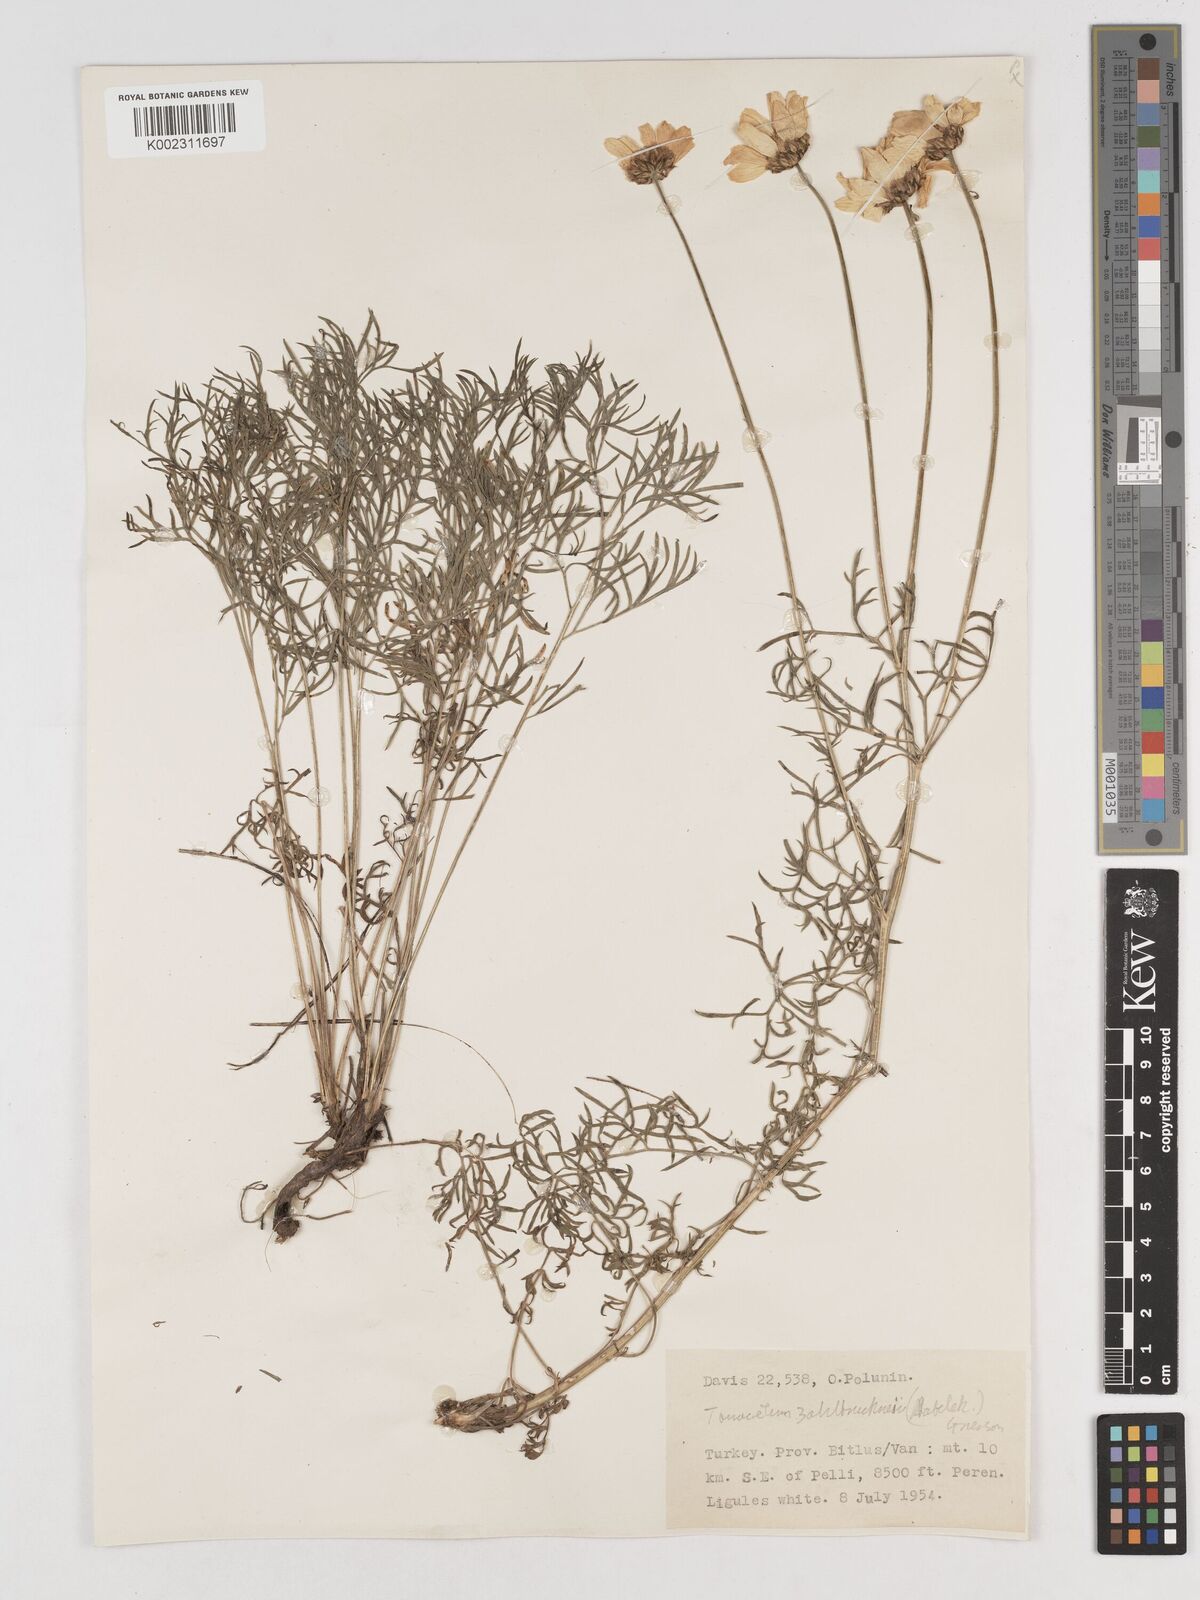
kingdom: Plantae
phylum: Tracheophyta
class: Magnoliopsida
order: Asterales
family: Asteraceae
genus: Tanacetum
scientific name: Tanacetum zahlbruckneri
